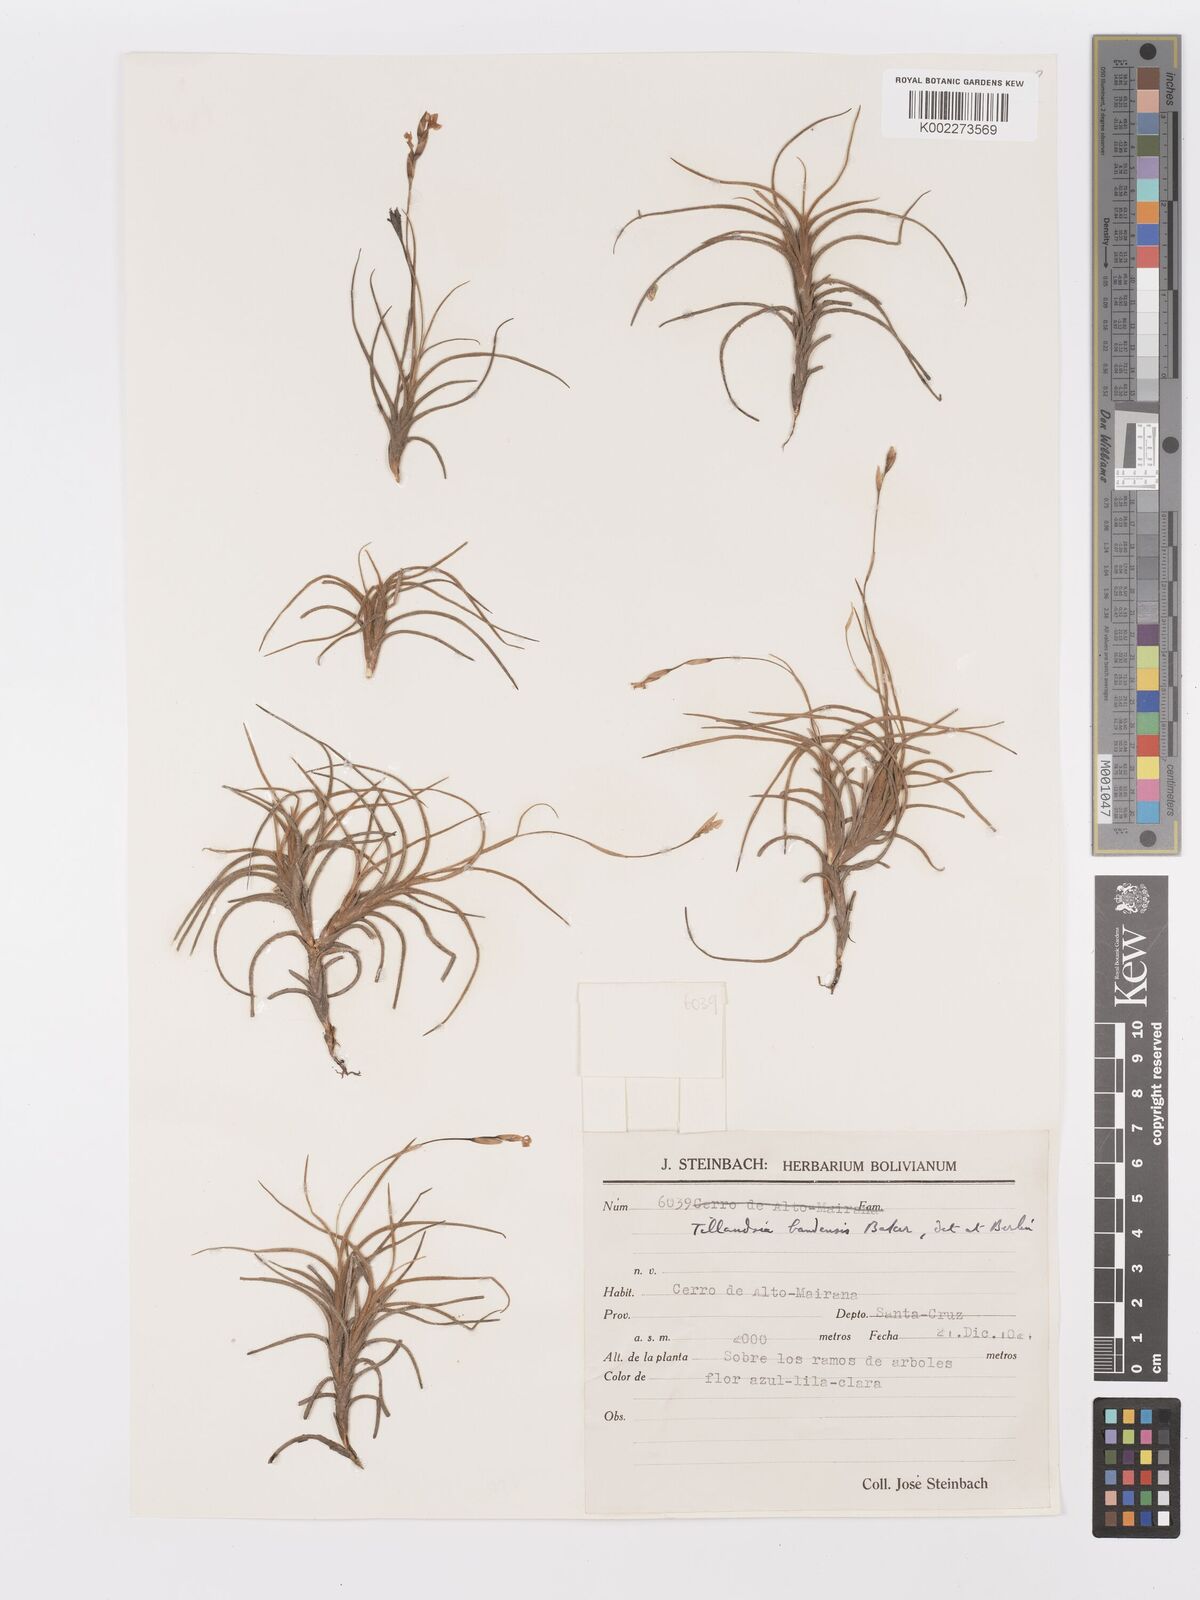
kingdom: Plantae
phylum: Tracheophyta
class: Liliopsida
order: Poales
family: Bromeliaceae
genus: Tillandsia
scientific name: Tillandsia bandensis
